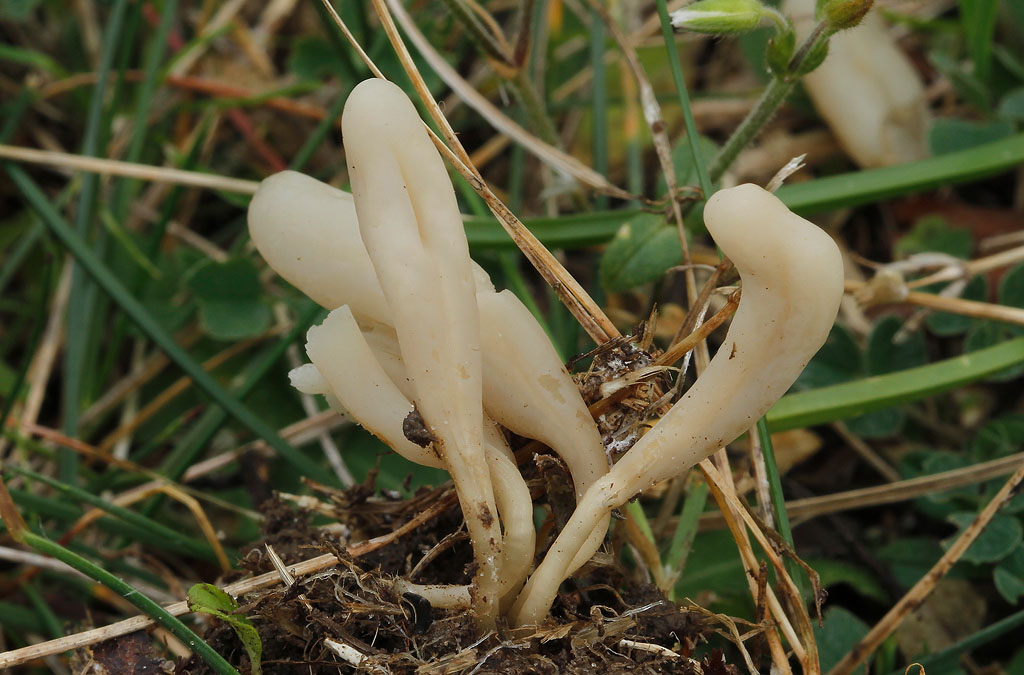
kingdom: Fungi
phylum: Basidiomycota
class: Agaricomycetes
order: Agaricales
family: Clavariaceae
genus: Clavaria
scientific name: Clavaria falcata
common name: hvid køllesvamp
